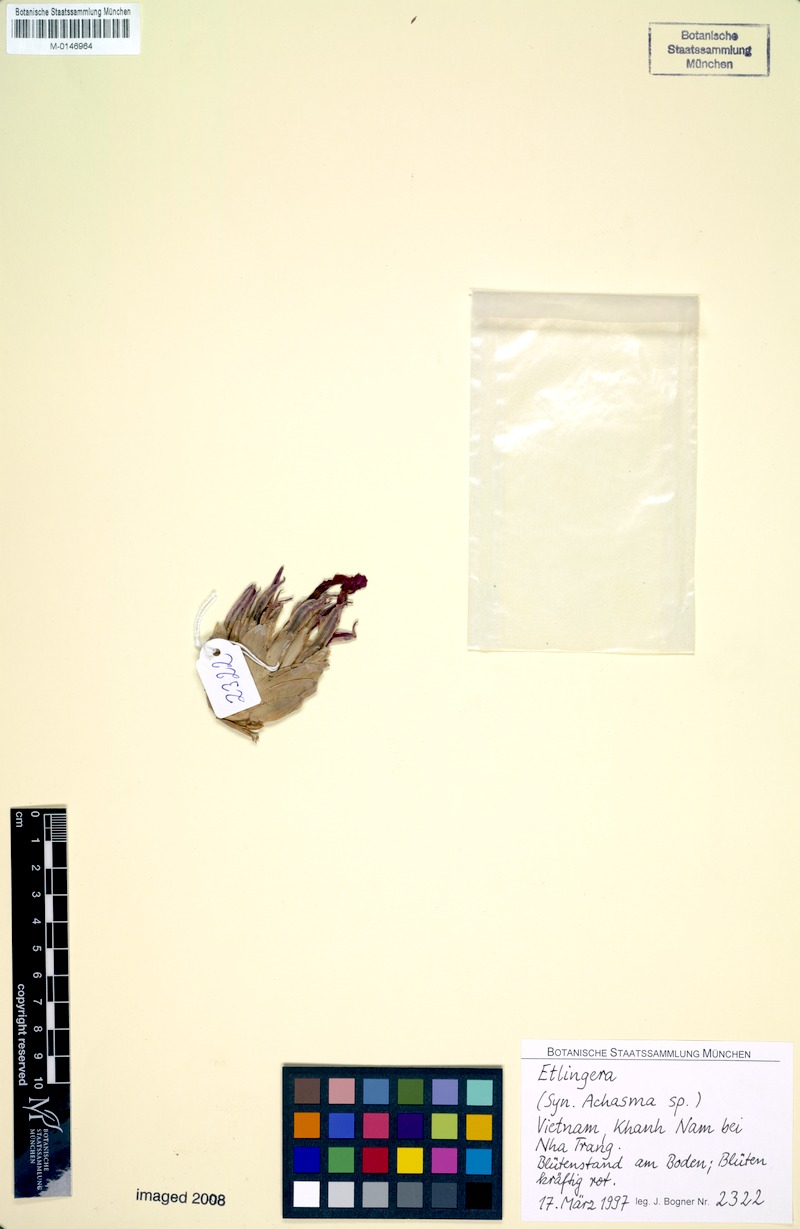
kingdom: Plantae
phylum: Tracheophyta
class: Liliopsida
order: Zingiberales
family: Zingiberaceae
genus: Etlingera
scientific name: Etlingera
